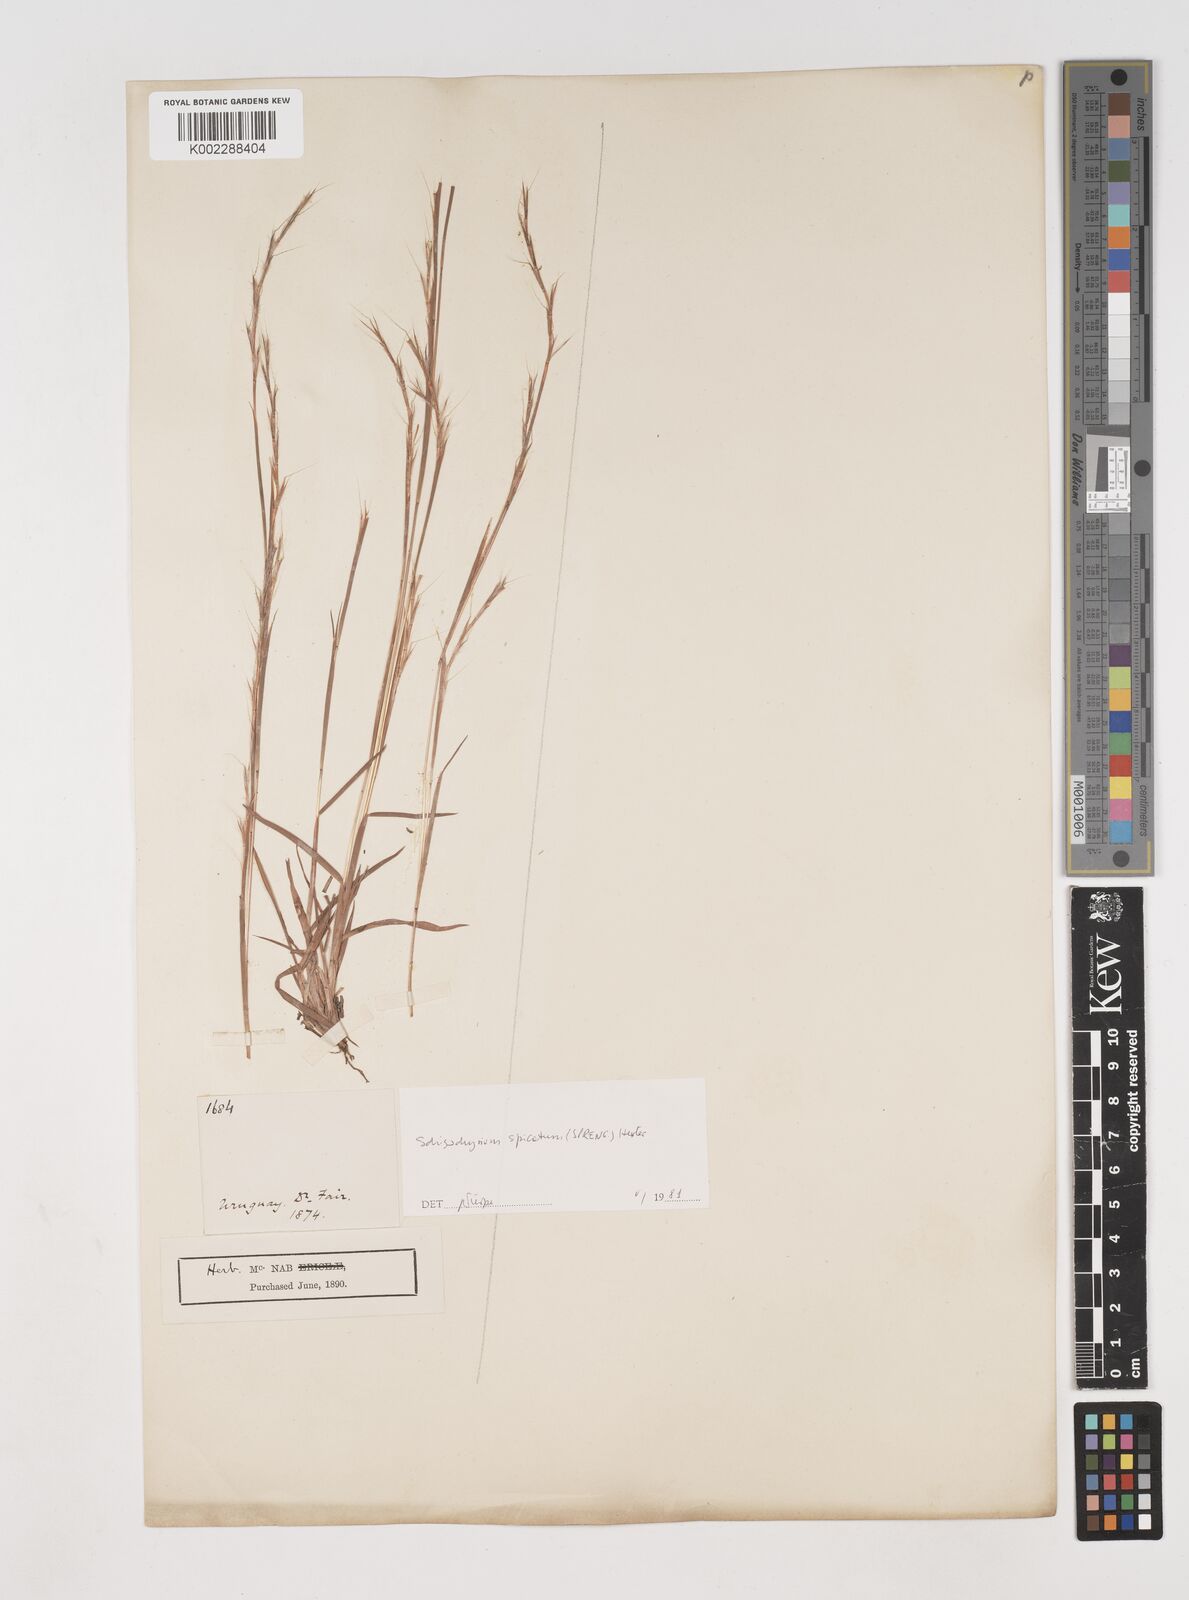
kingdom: Plantae
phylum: Tracheophyta
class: Liliopsida
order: Poales
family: Poaceae
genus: Schizachyrium
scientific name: Schizachyrium spicatum
